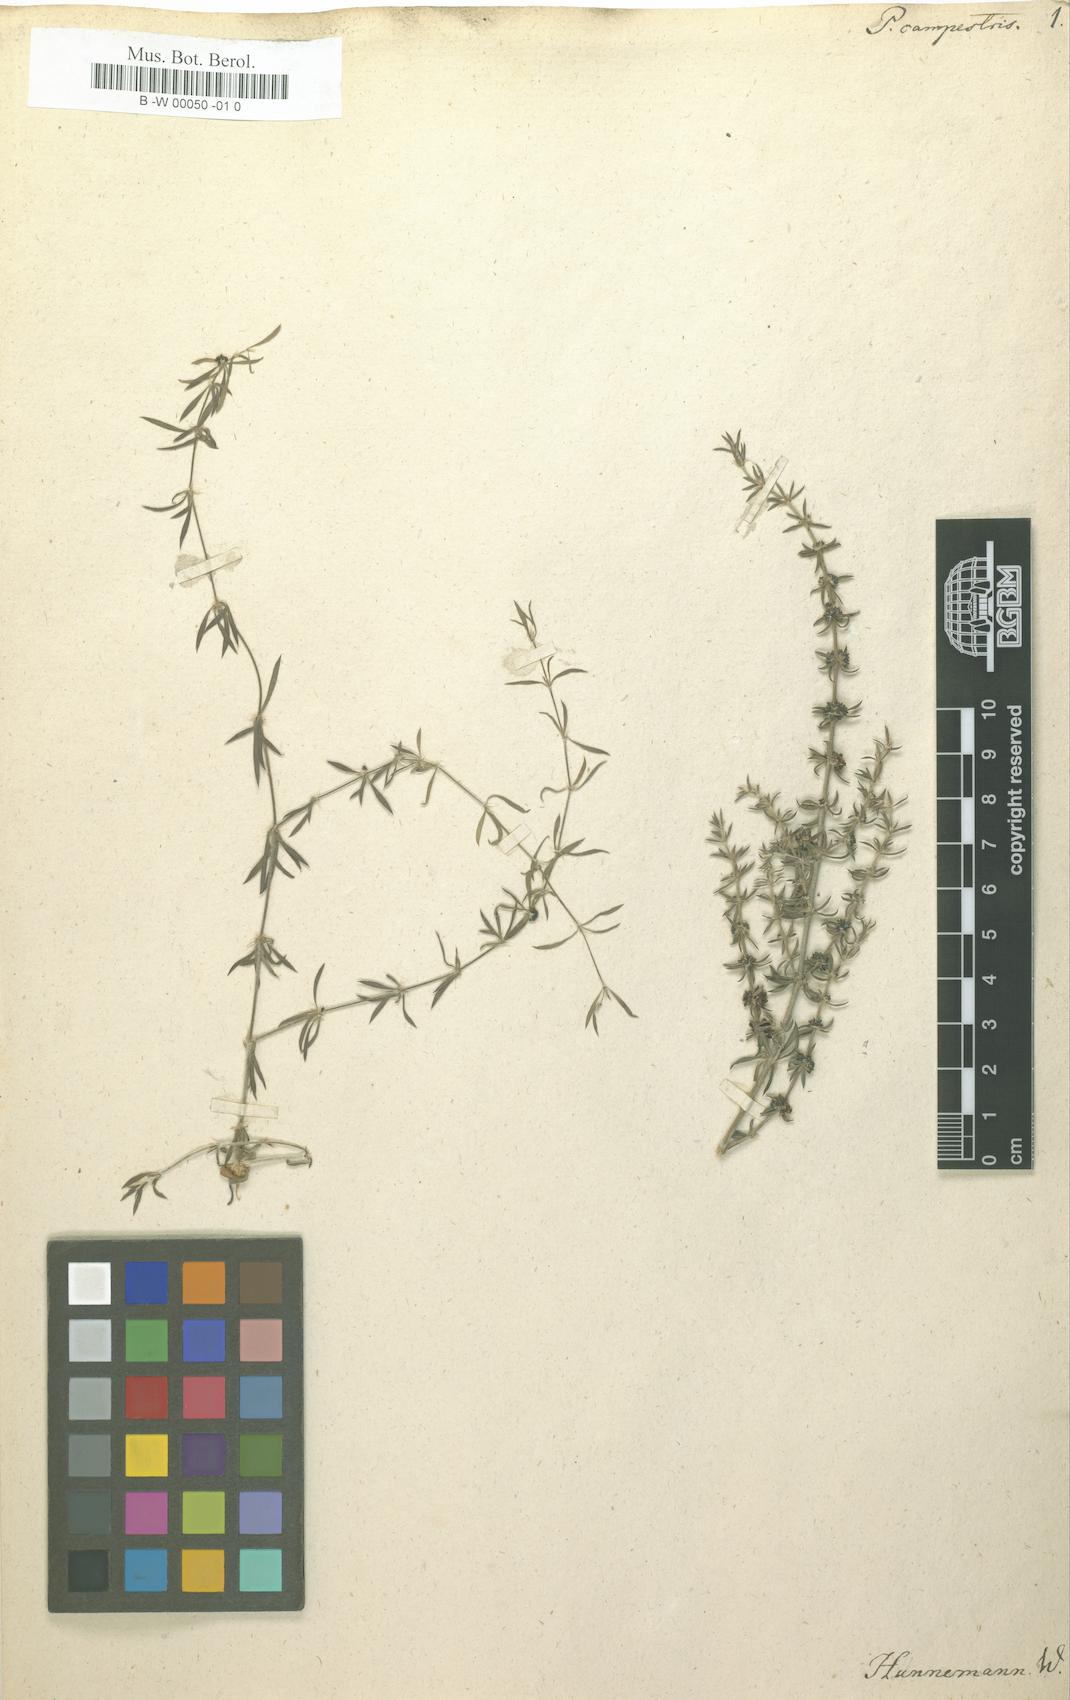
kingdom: Plantae
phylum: Tracheophyta
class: Magnoliopsida
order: Caryophyllales
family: Caryophyllaceae
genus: Pollichia
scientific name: Pollichia campestris
